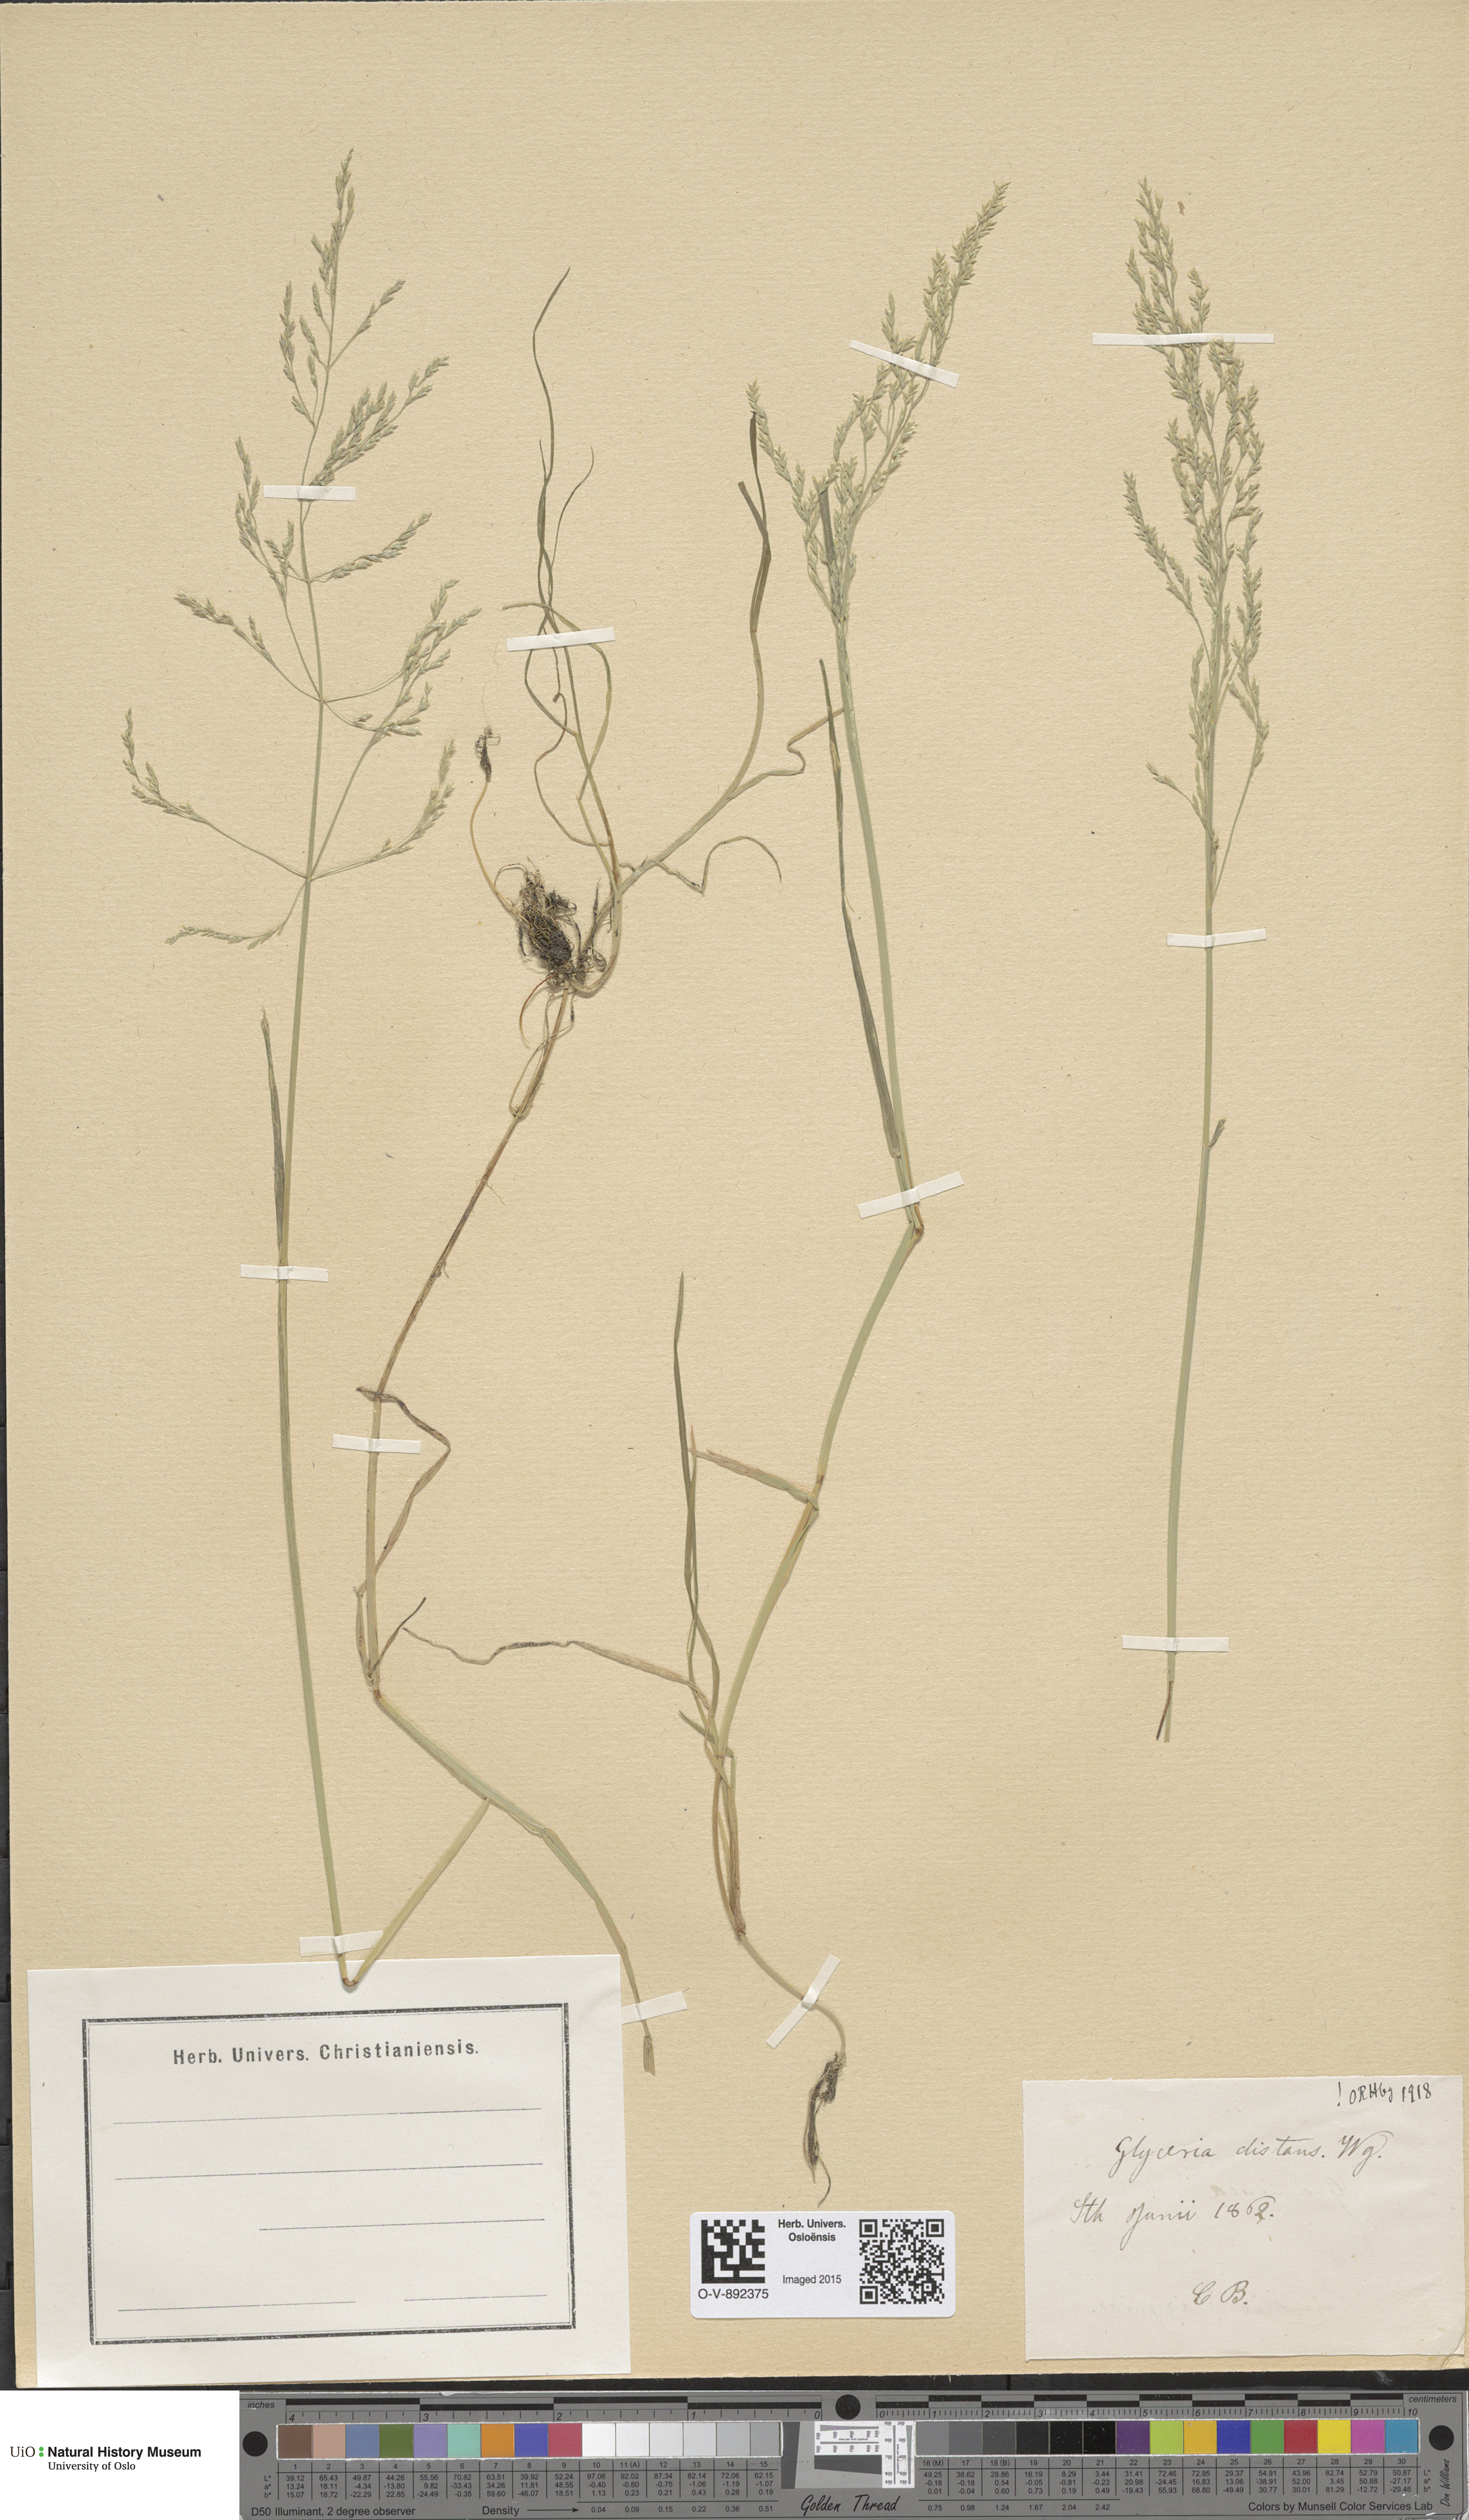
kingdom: Plantae
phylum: Tracheophyta
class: Liliopsida
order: Poales
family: Poaceae
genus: Puccinellia
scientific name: Puccinellia distans
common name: Weeping alkaligrass
